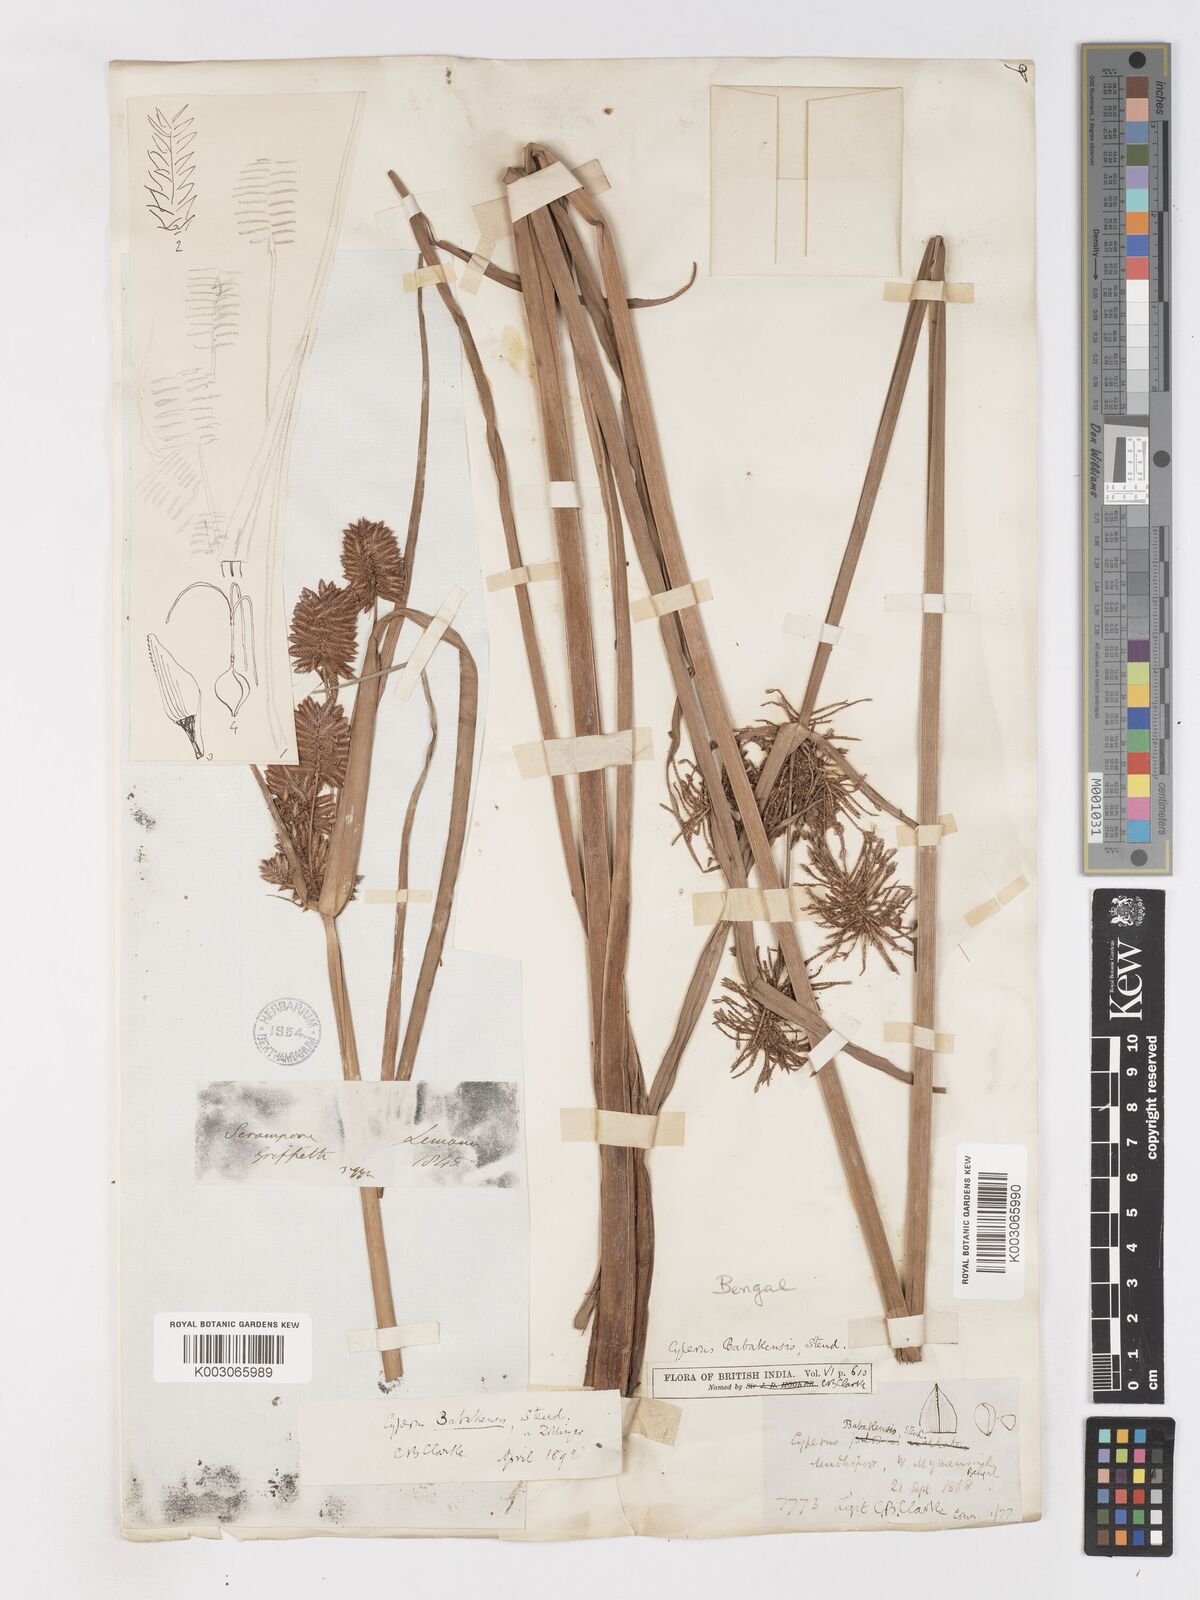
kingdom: Plantae
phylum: Tracheophyta
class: Liliopsida
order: Poales
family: Cyperaceae
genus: Cyperus
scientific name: Cyperus babakan
